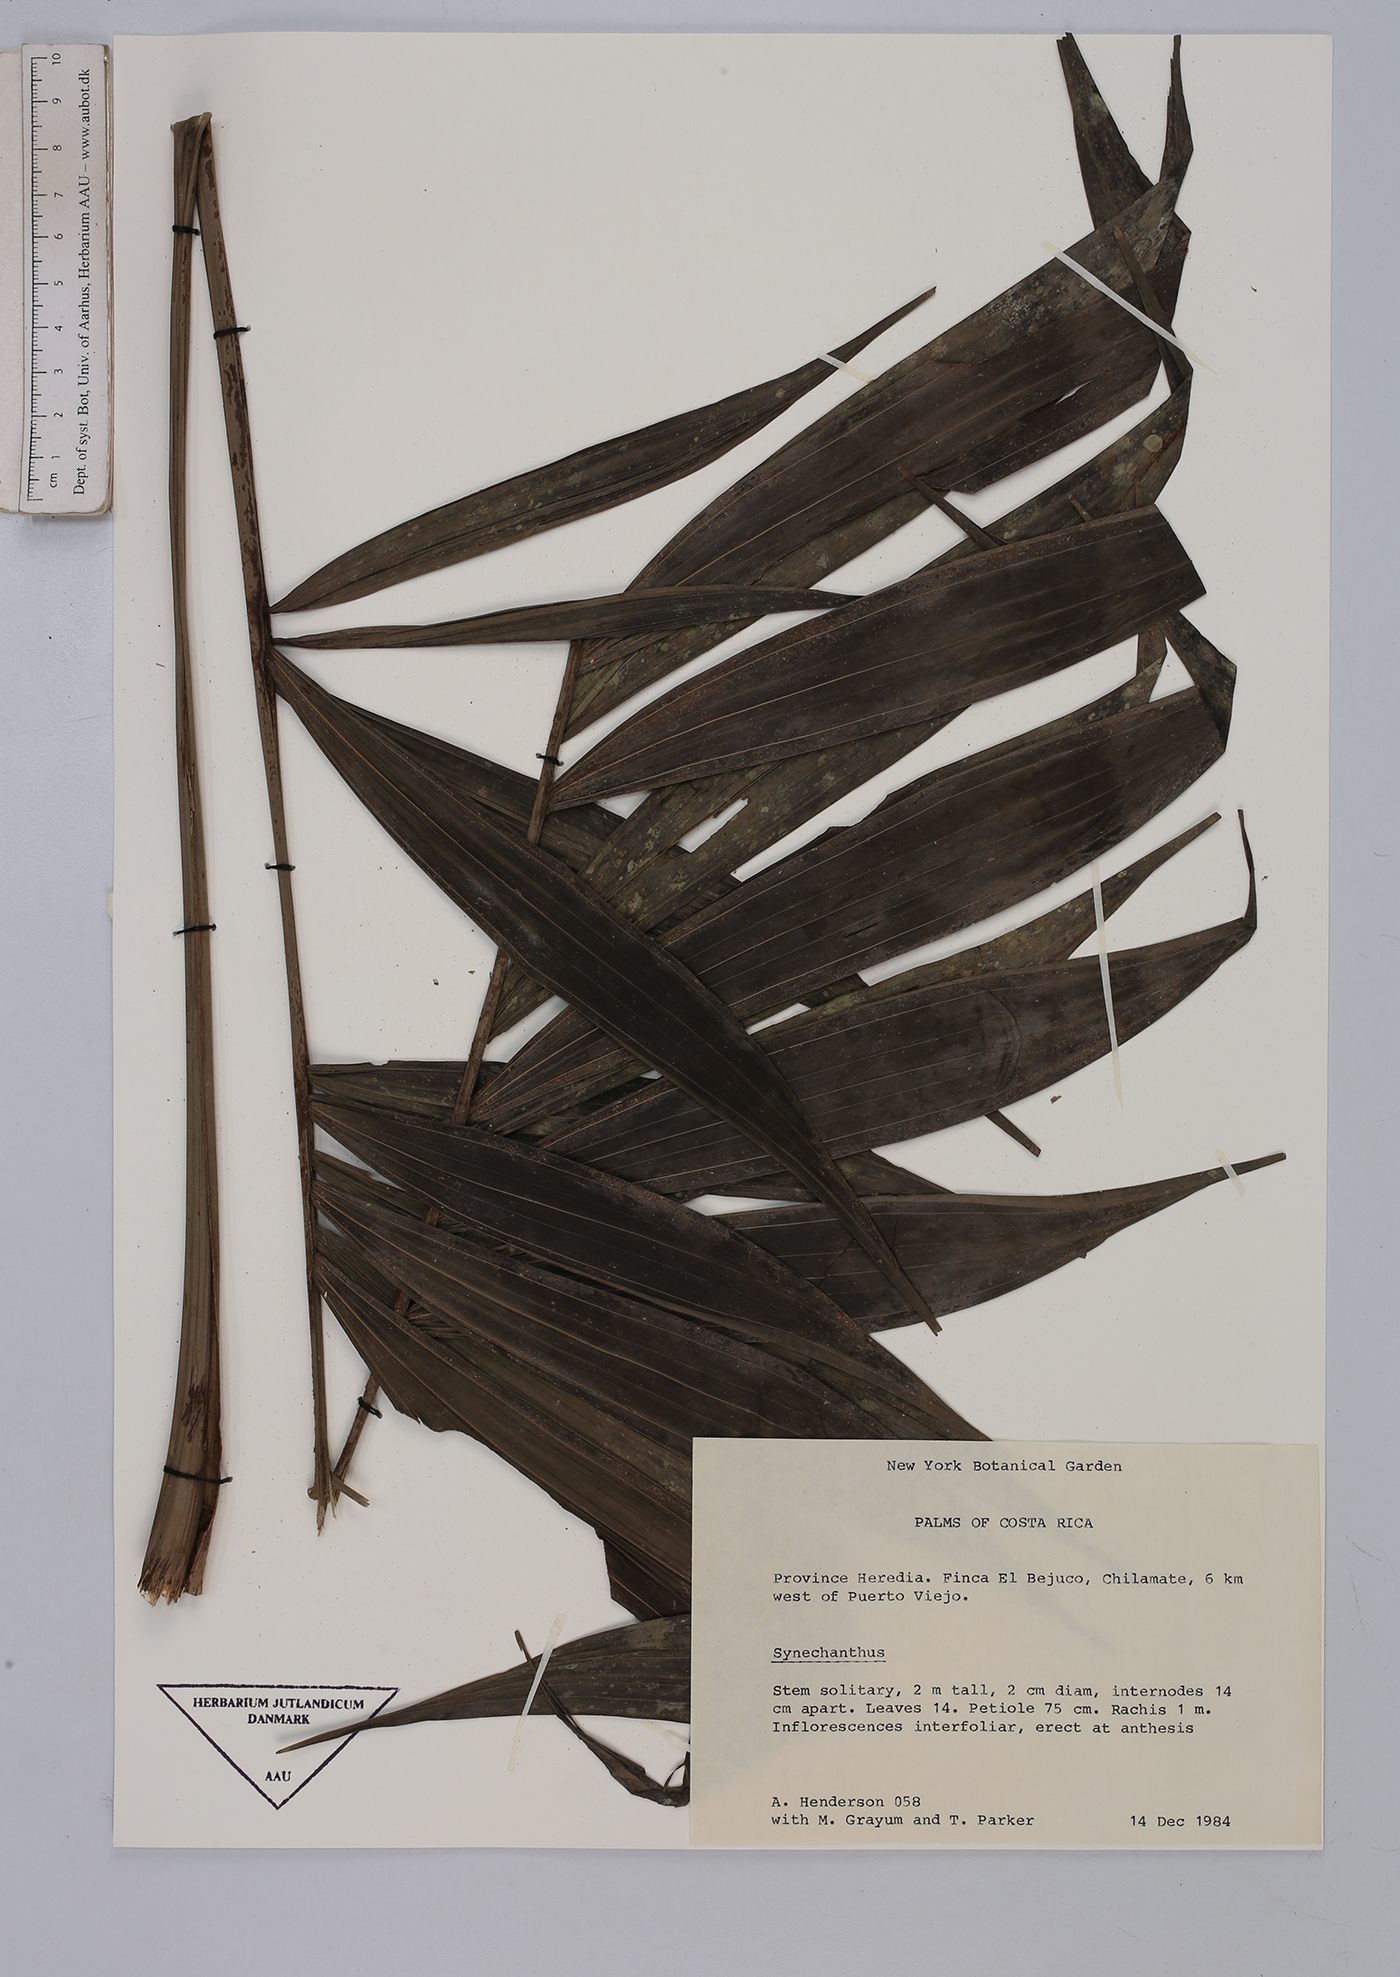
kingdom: Plantae
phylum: Tracheophyta
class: Liliopsida
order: Arecales
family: Arecaceae
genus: Synechanthus
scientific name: Synechanthus
